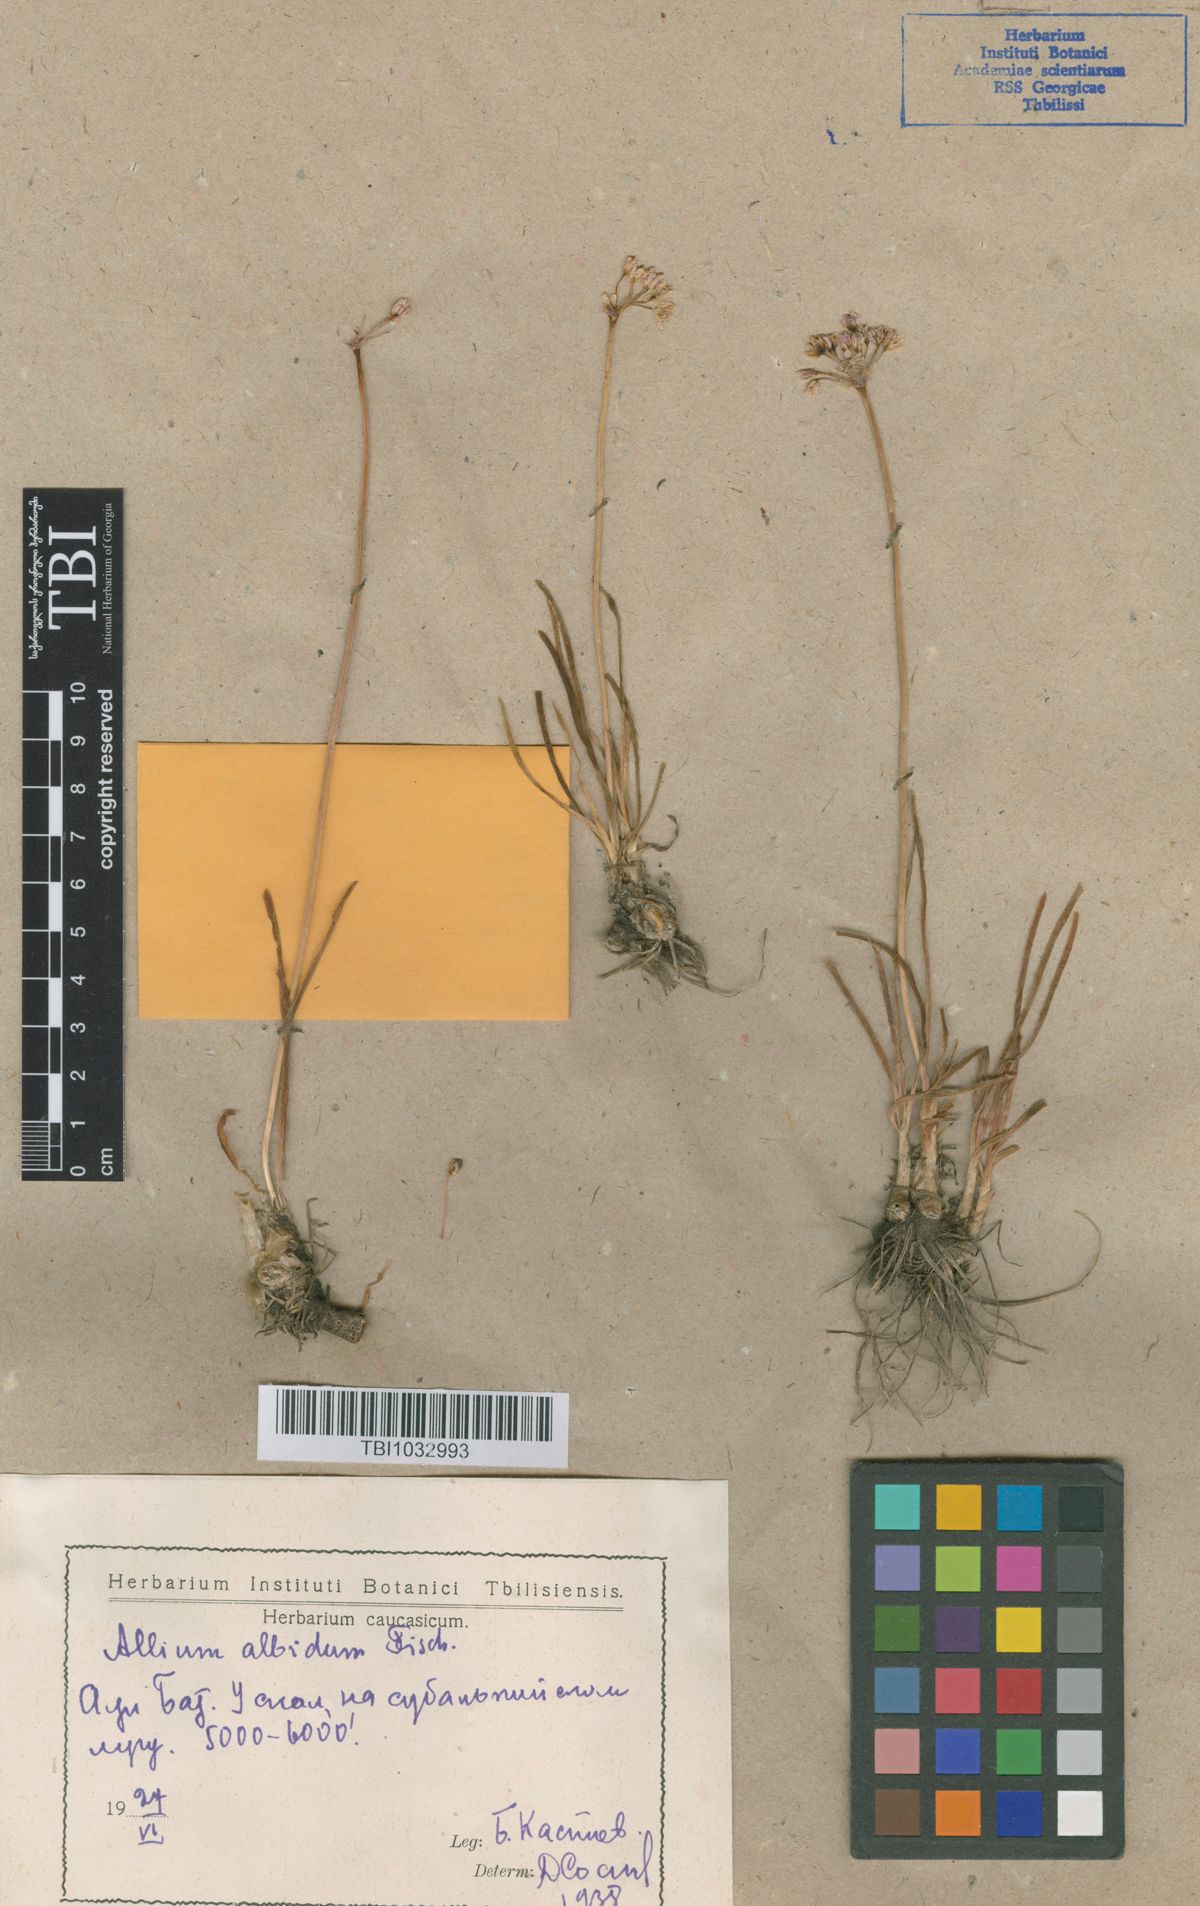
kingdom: Plantae
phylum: Tracheophyta
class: Liliopsida
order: Asparagales
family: Amaryllidaceae
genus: Allium
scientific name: Allium denudatum
